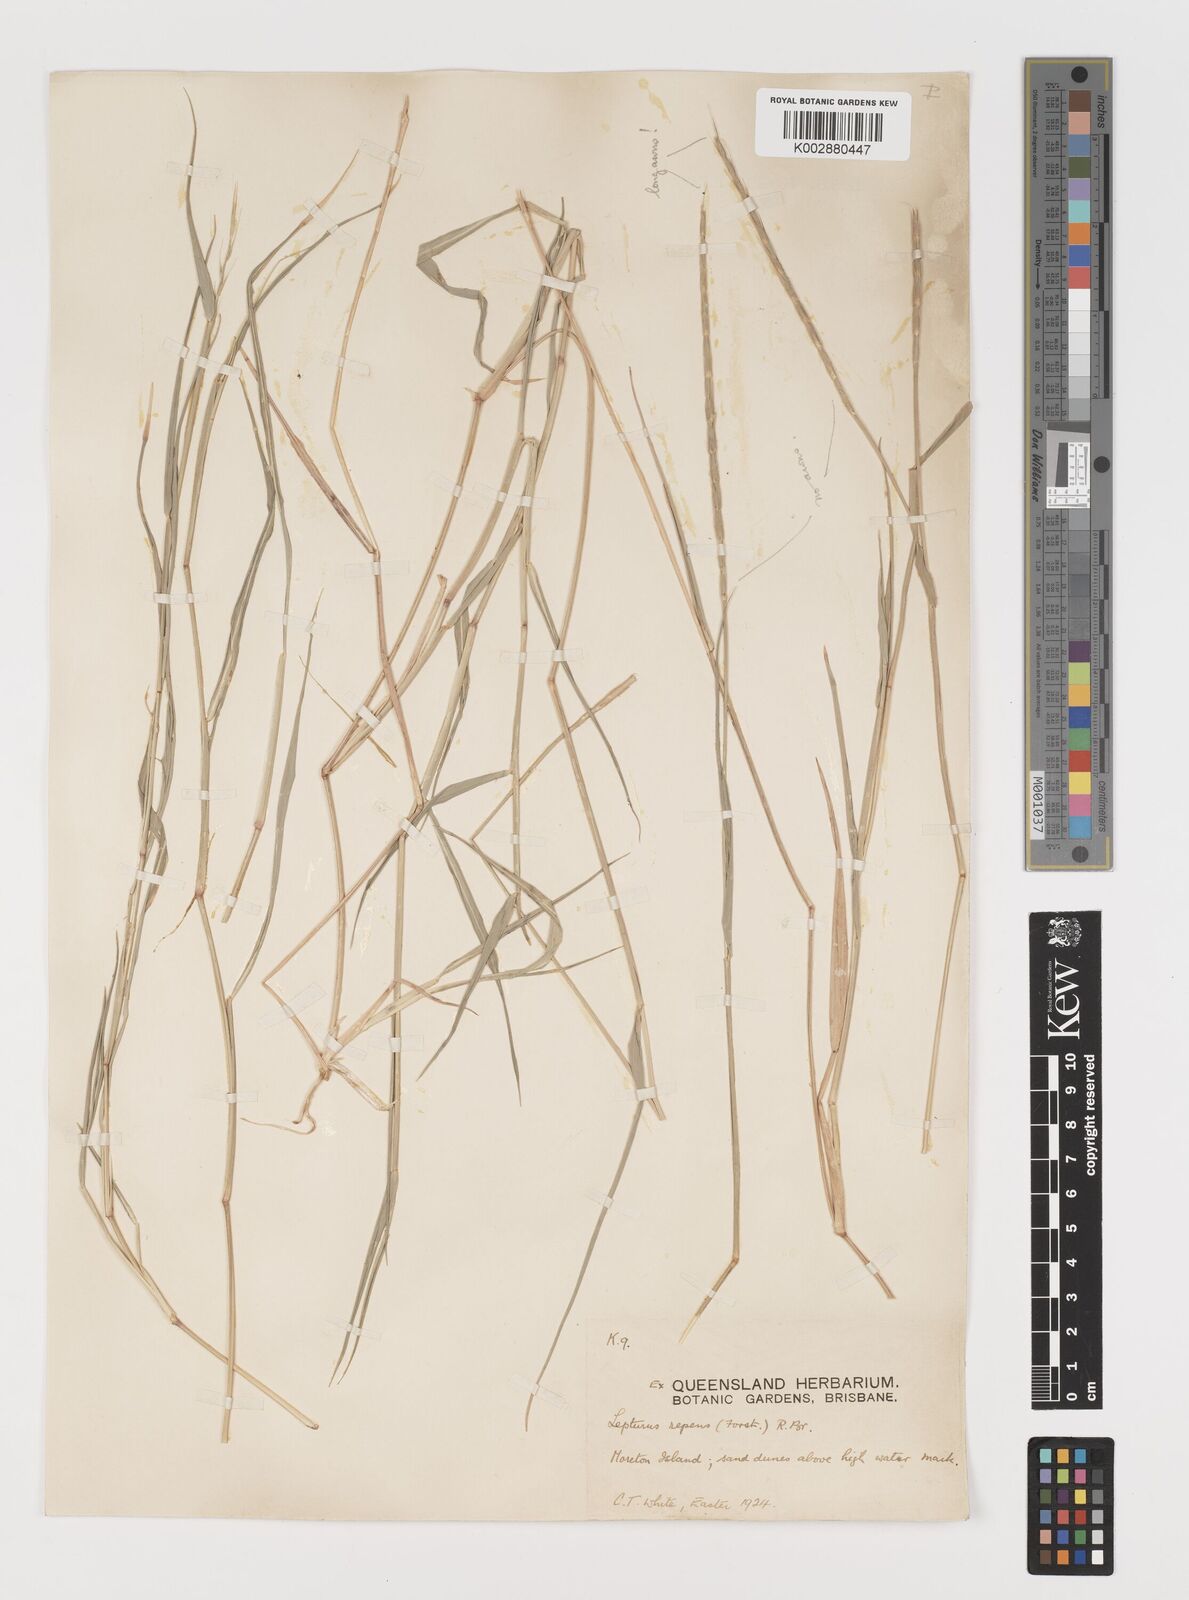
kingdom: Plantae
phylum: Tracheophyta
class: Liliopsida
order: Poales
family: Poaceae
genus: Lepturus
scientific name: Lepturus repens
